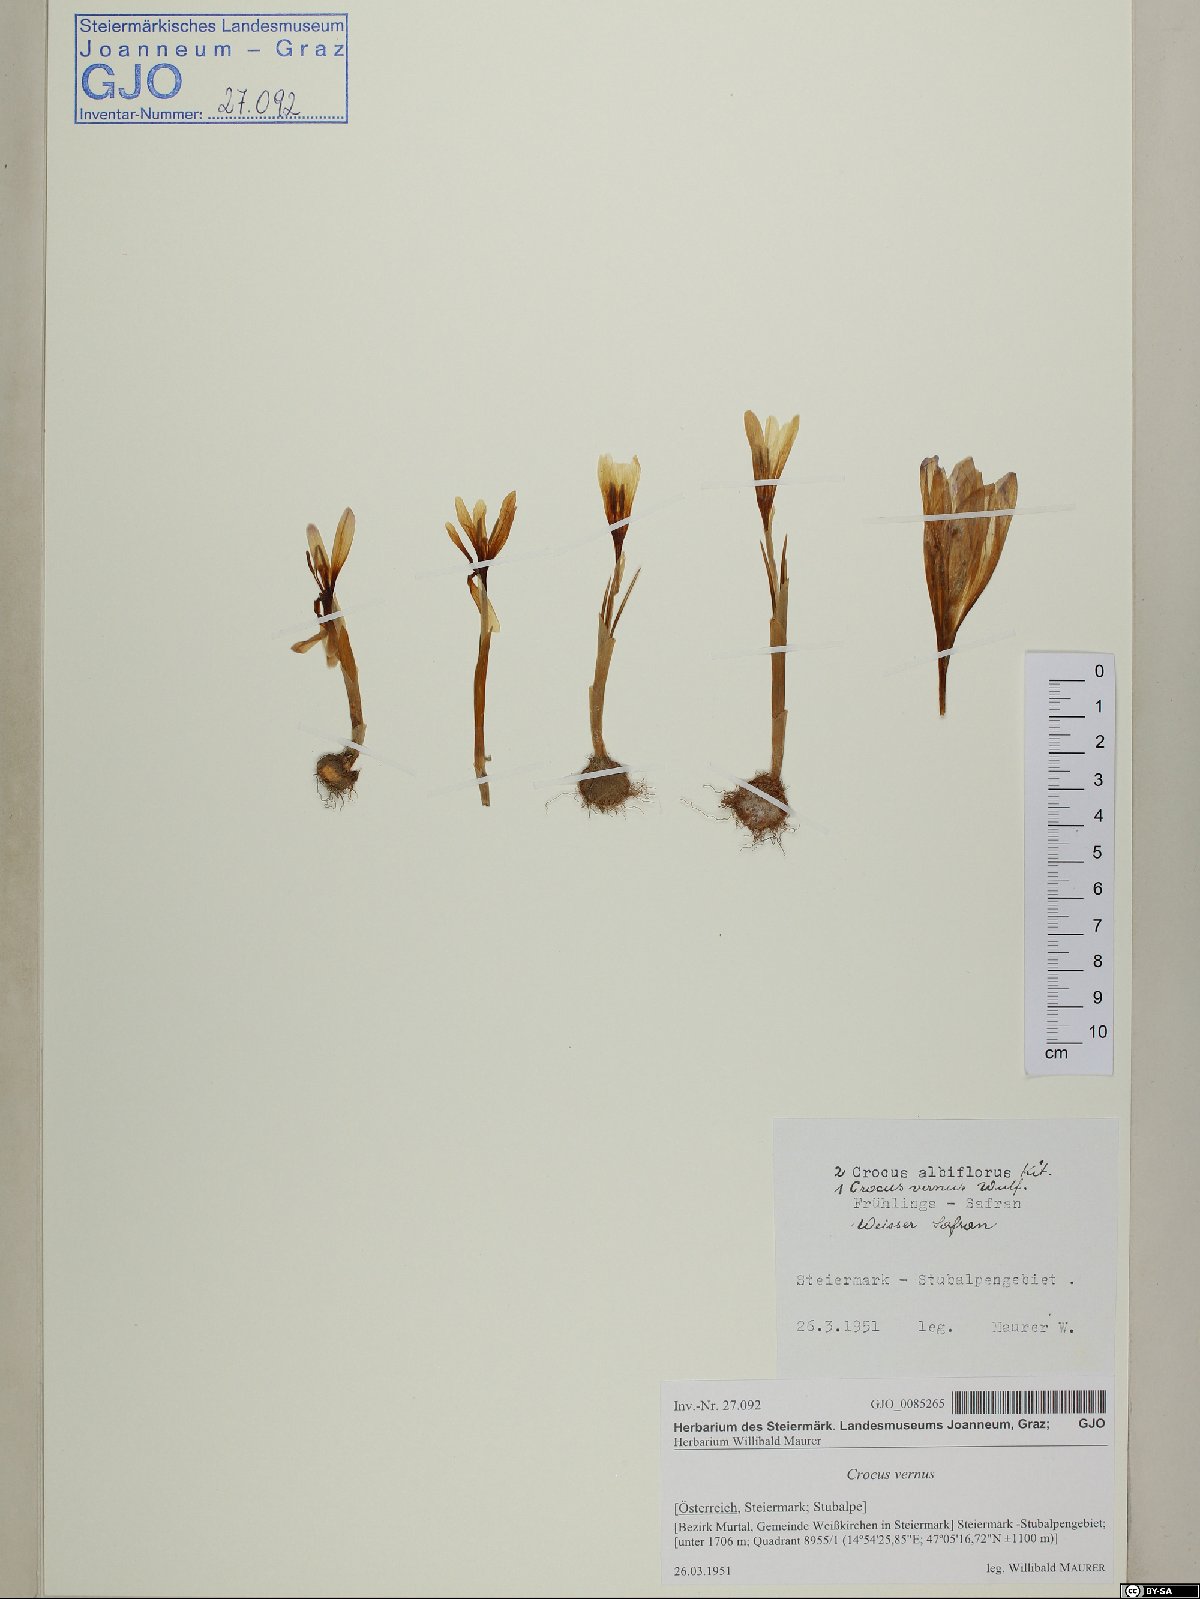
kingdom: Plantae
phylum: Tracheophyta
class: Liliopsida
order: Asparagales
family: Iridaceae
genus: Crocus
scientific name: Crocus vernus
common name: Spring crocus
